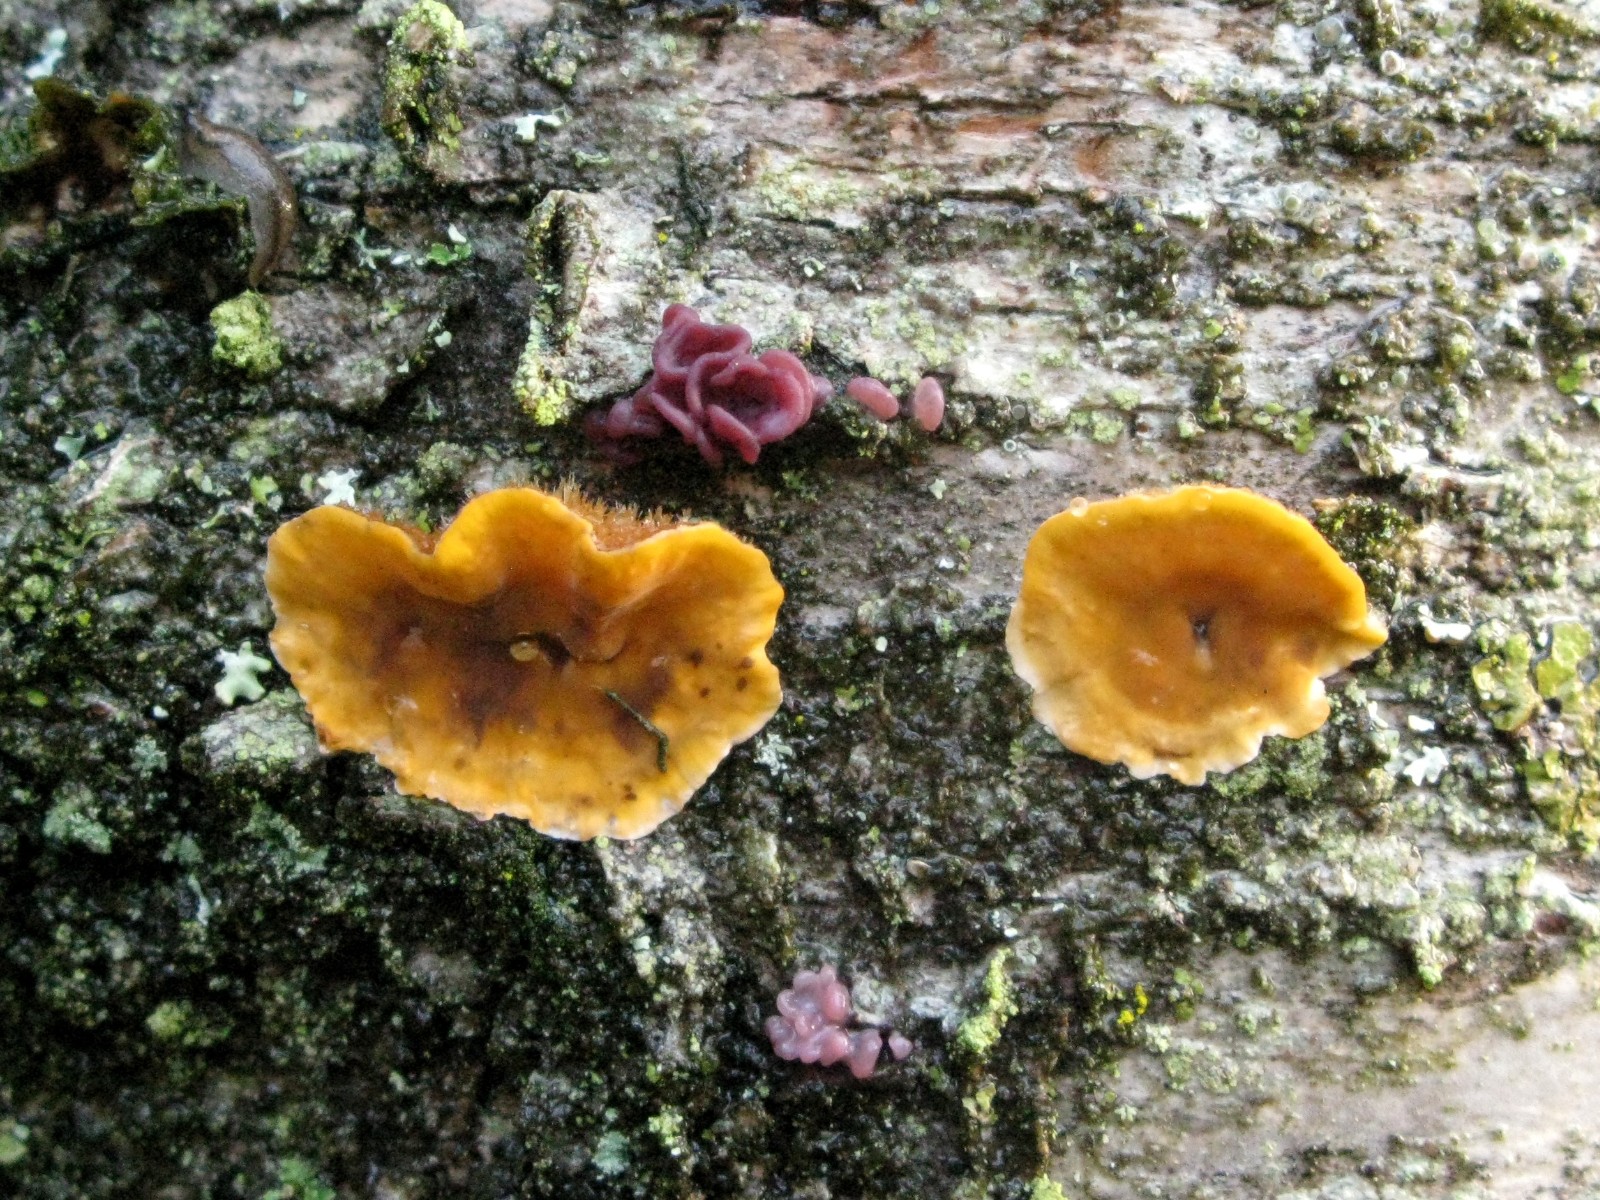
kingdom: Fungi
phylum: Ascomycota
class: Leotiomycetes
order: Helotiales
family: Gelatinodiscaceae
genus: Ascocoryne
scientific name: Ascocoryne sarcoides
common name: rødlilla sejskive
